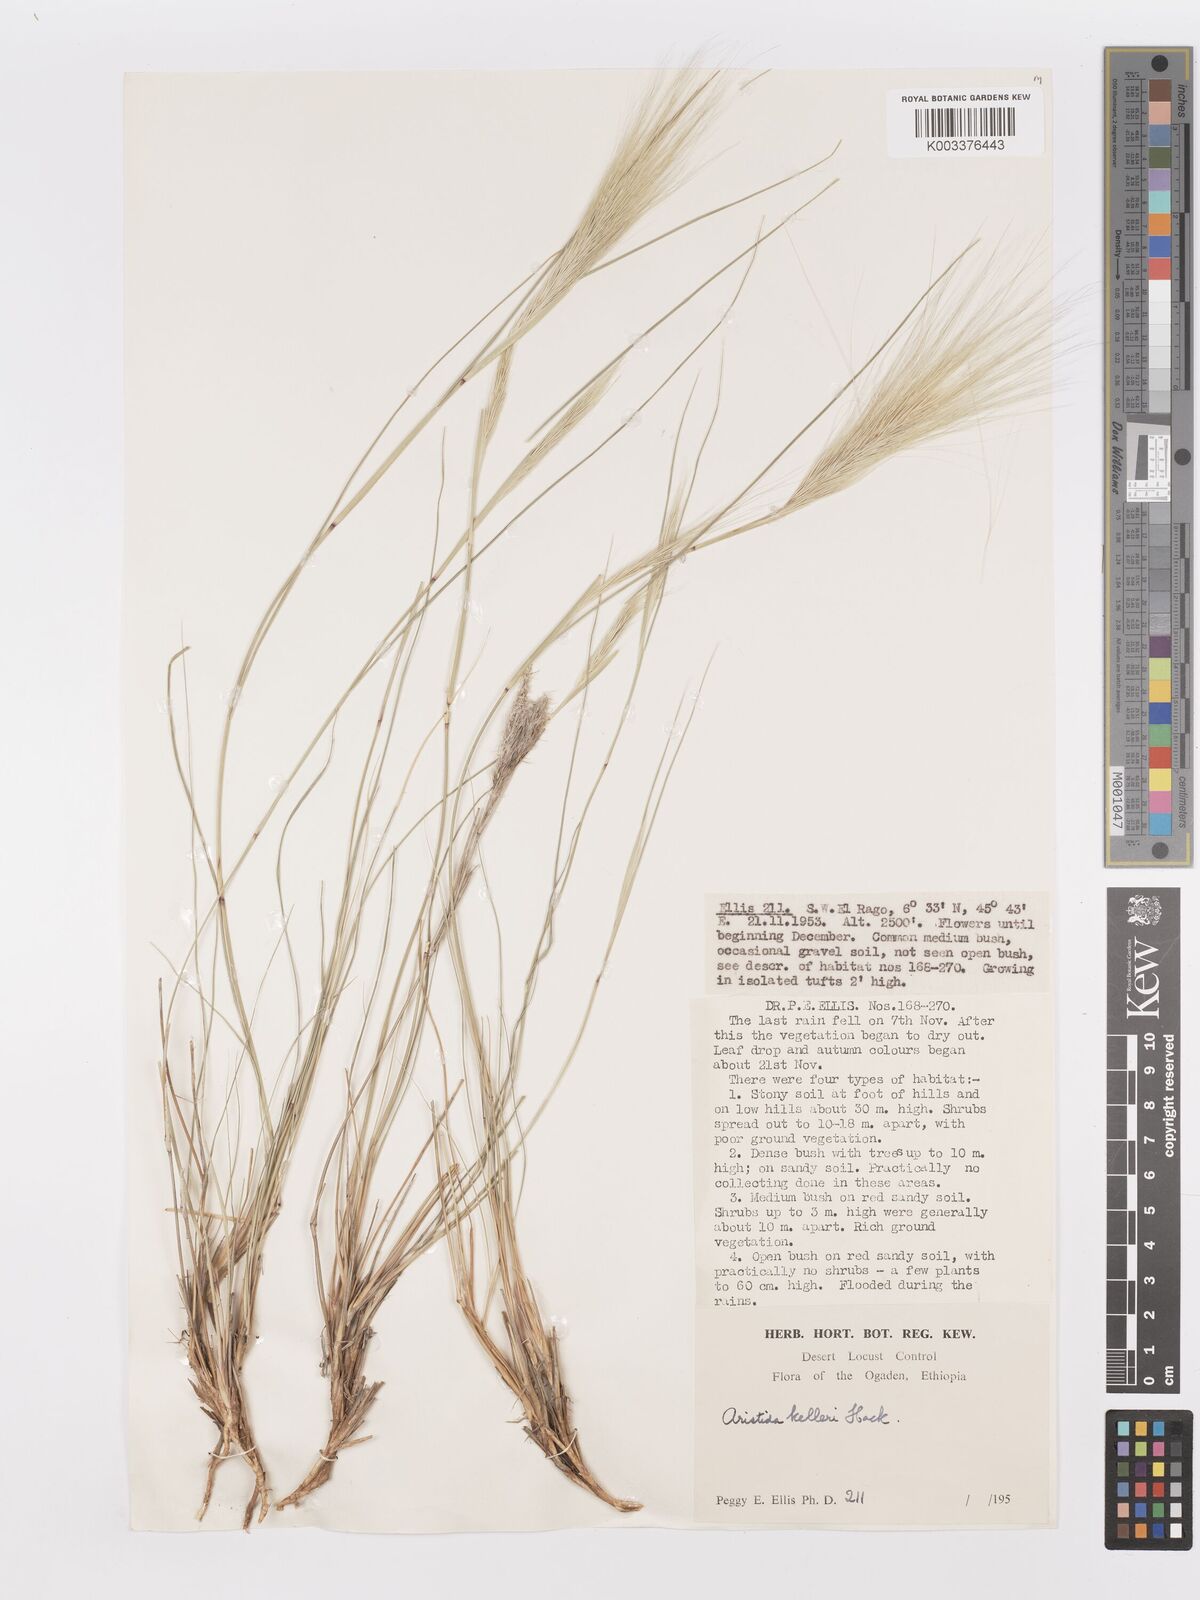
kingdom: Plantae
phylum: Tracheophyta
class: Liliopsida
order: Poales
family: Poaceae
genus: Aristida
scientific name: Aristida kelleri
